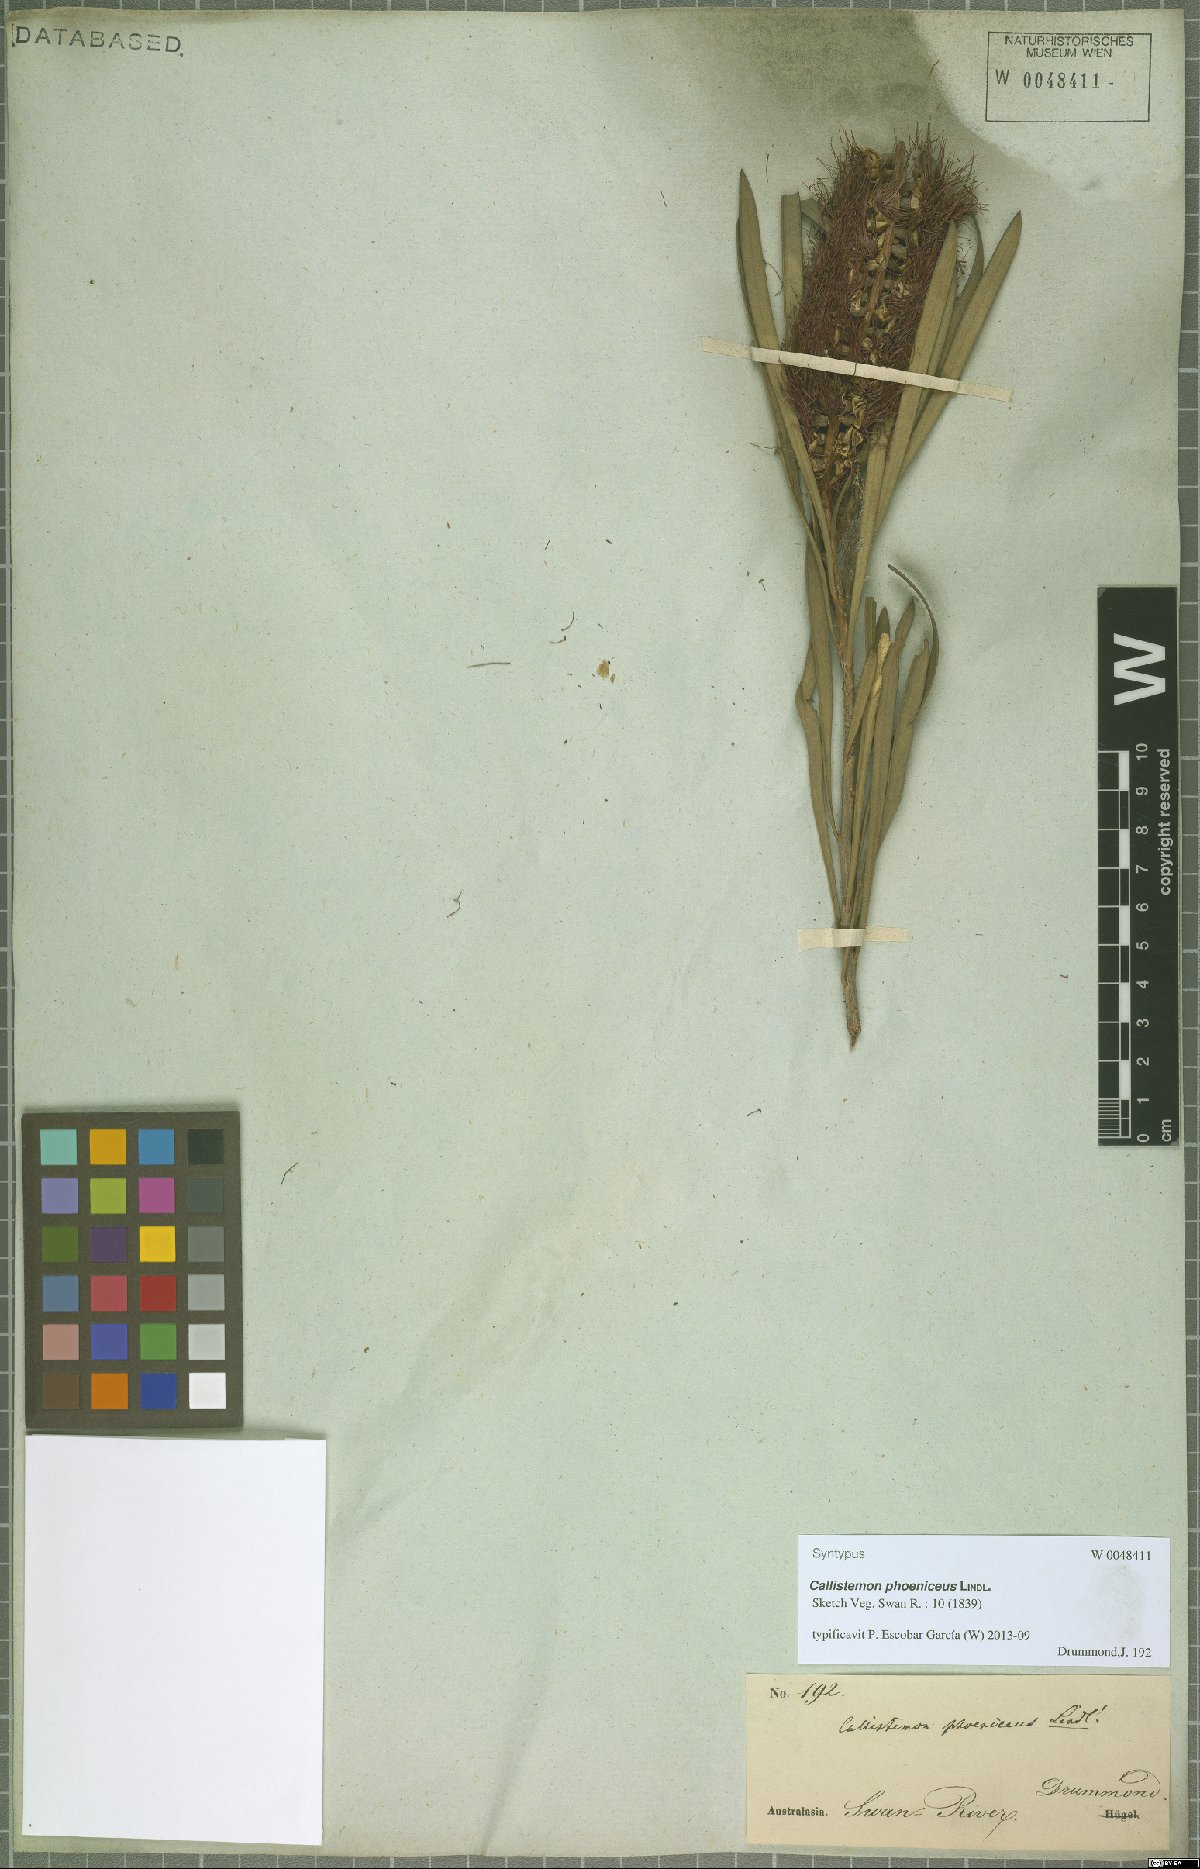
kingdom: Plantae
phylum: Tracheophyta
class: Magnoliopsida
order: Myrtales
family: Myrtaceae
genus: Callistemon
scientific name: Callistemon phoeniceus
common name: Lesser bottlebrush
